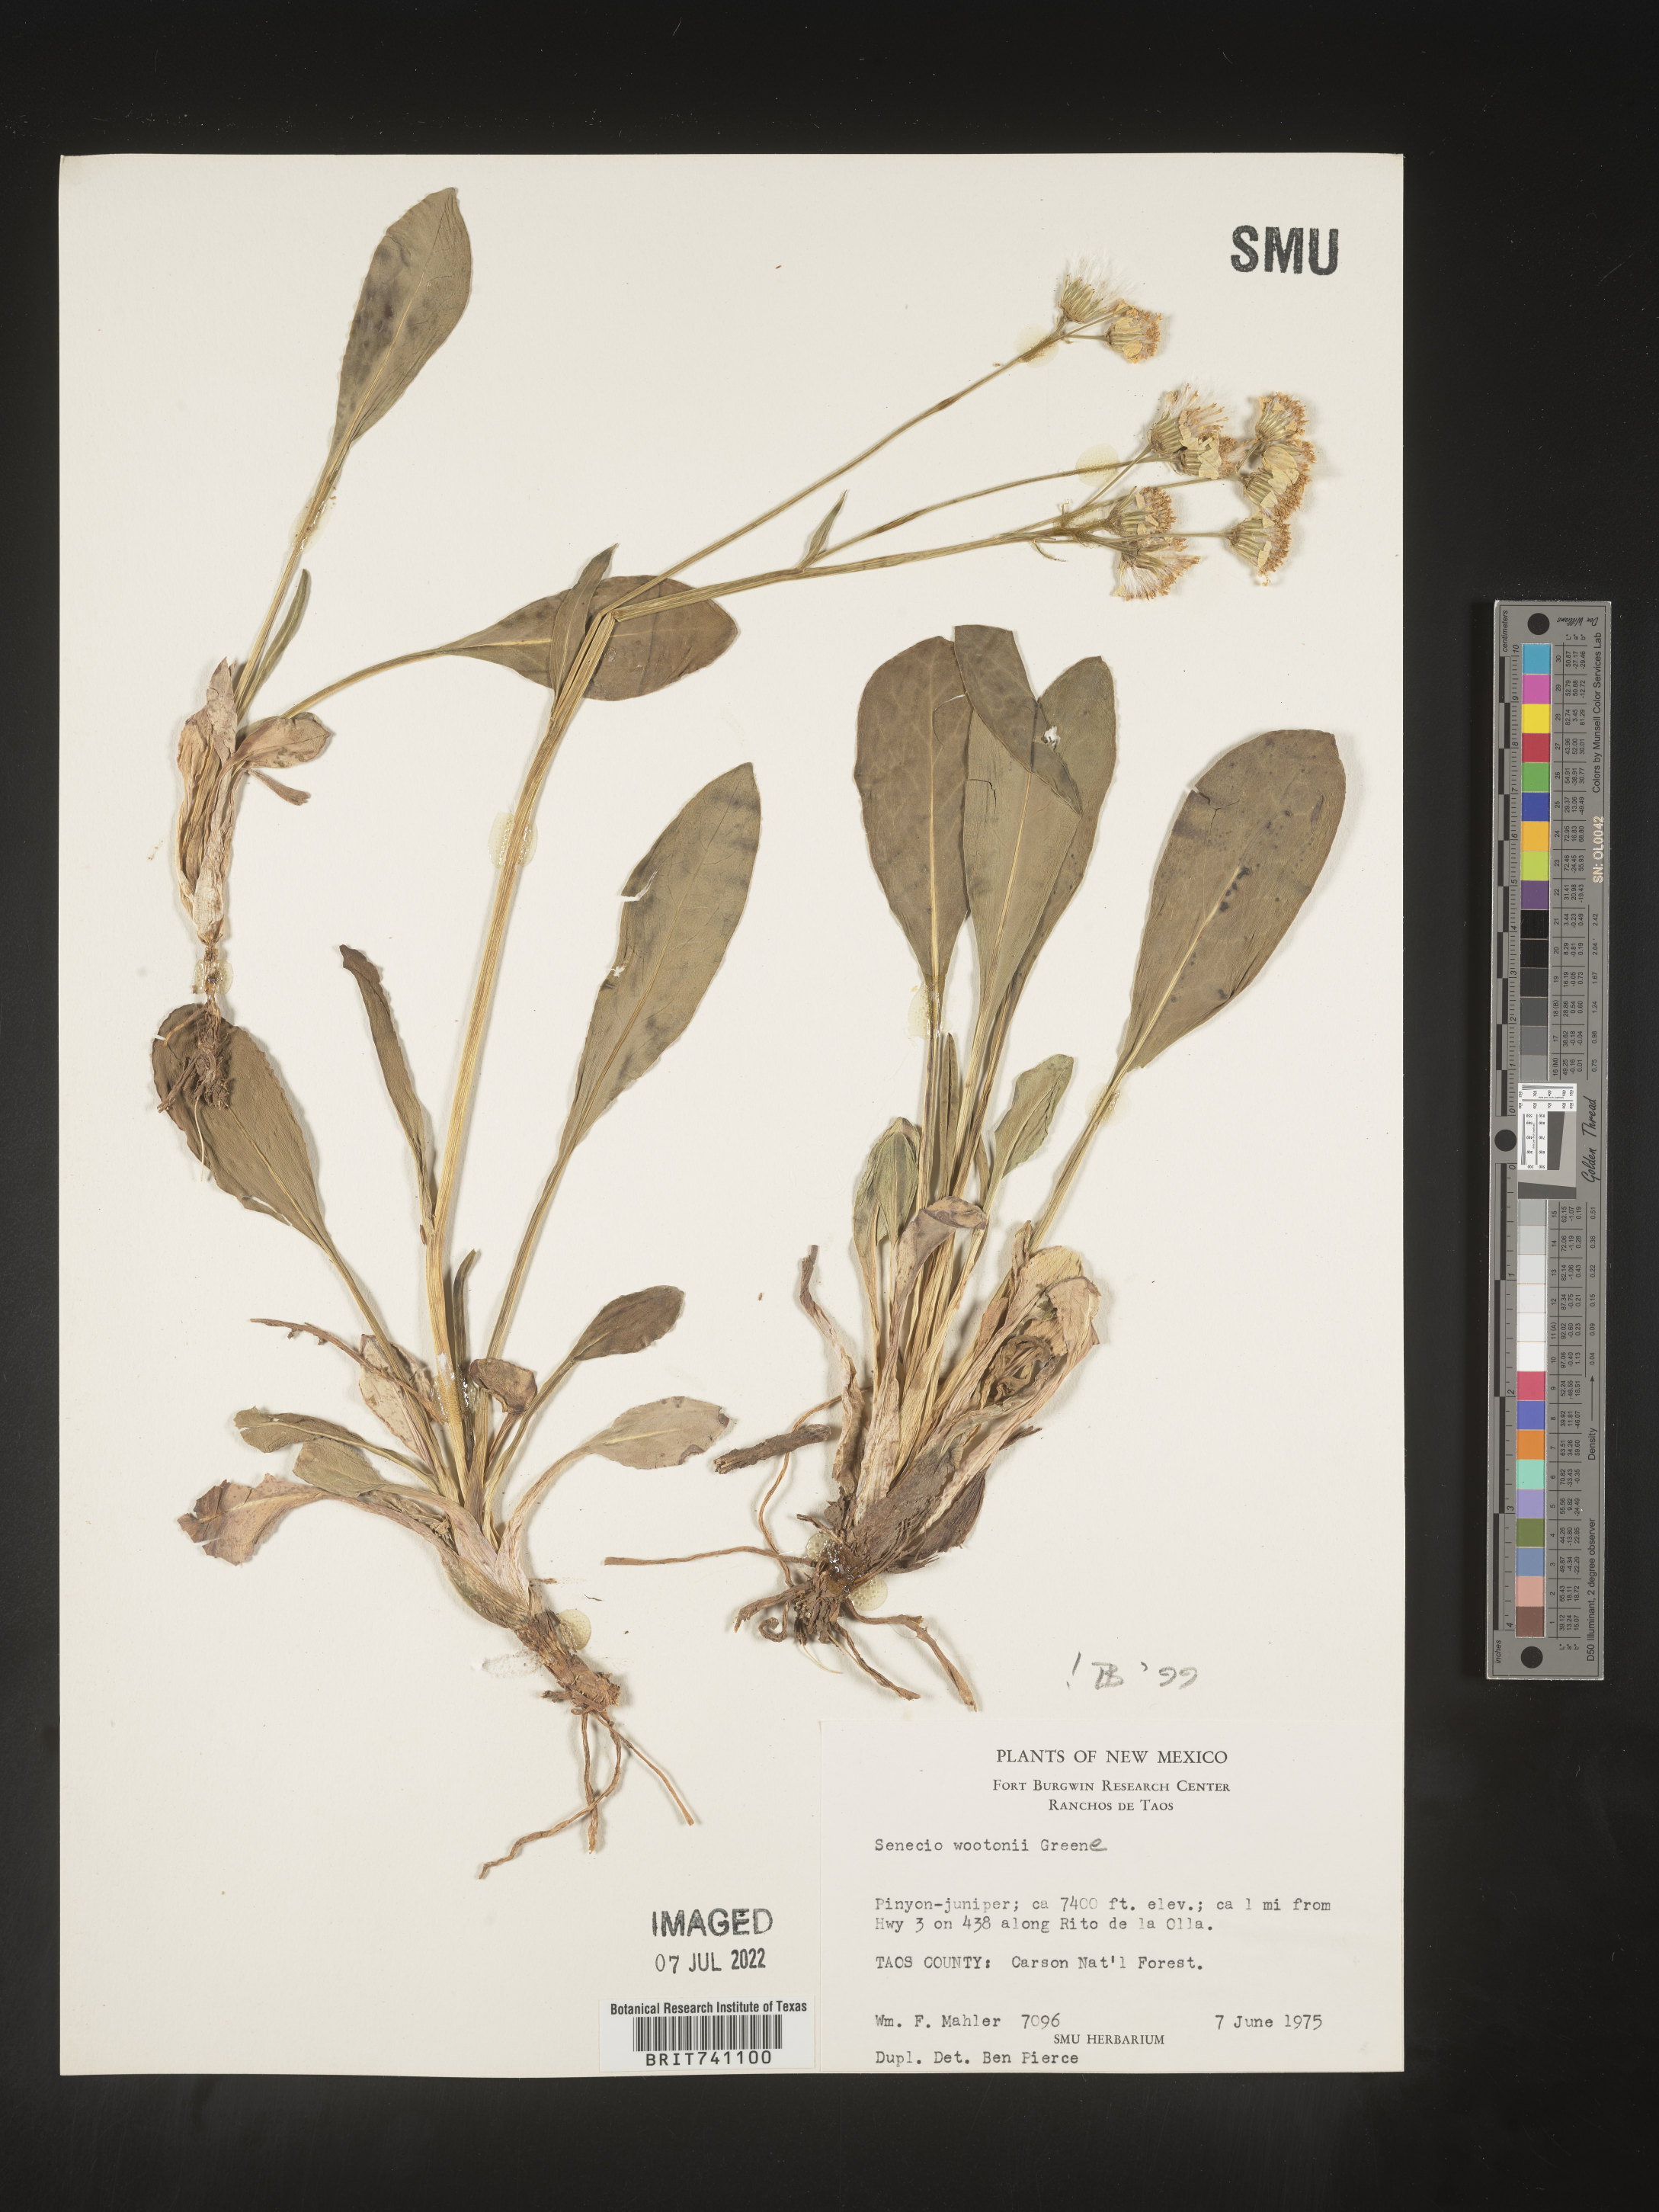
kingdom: Plantae
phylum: Tracheophyta
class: Magnoliopsida
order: Asterales
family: Asteraceae
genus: Senecio
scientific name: Senecio wootonii
